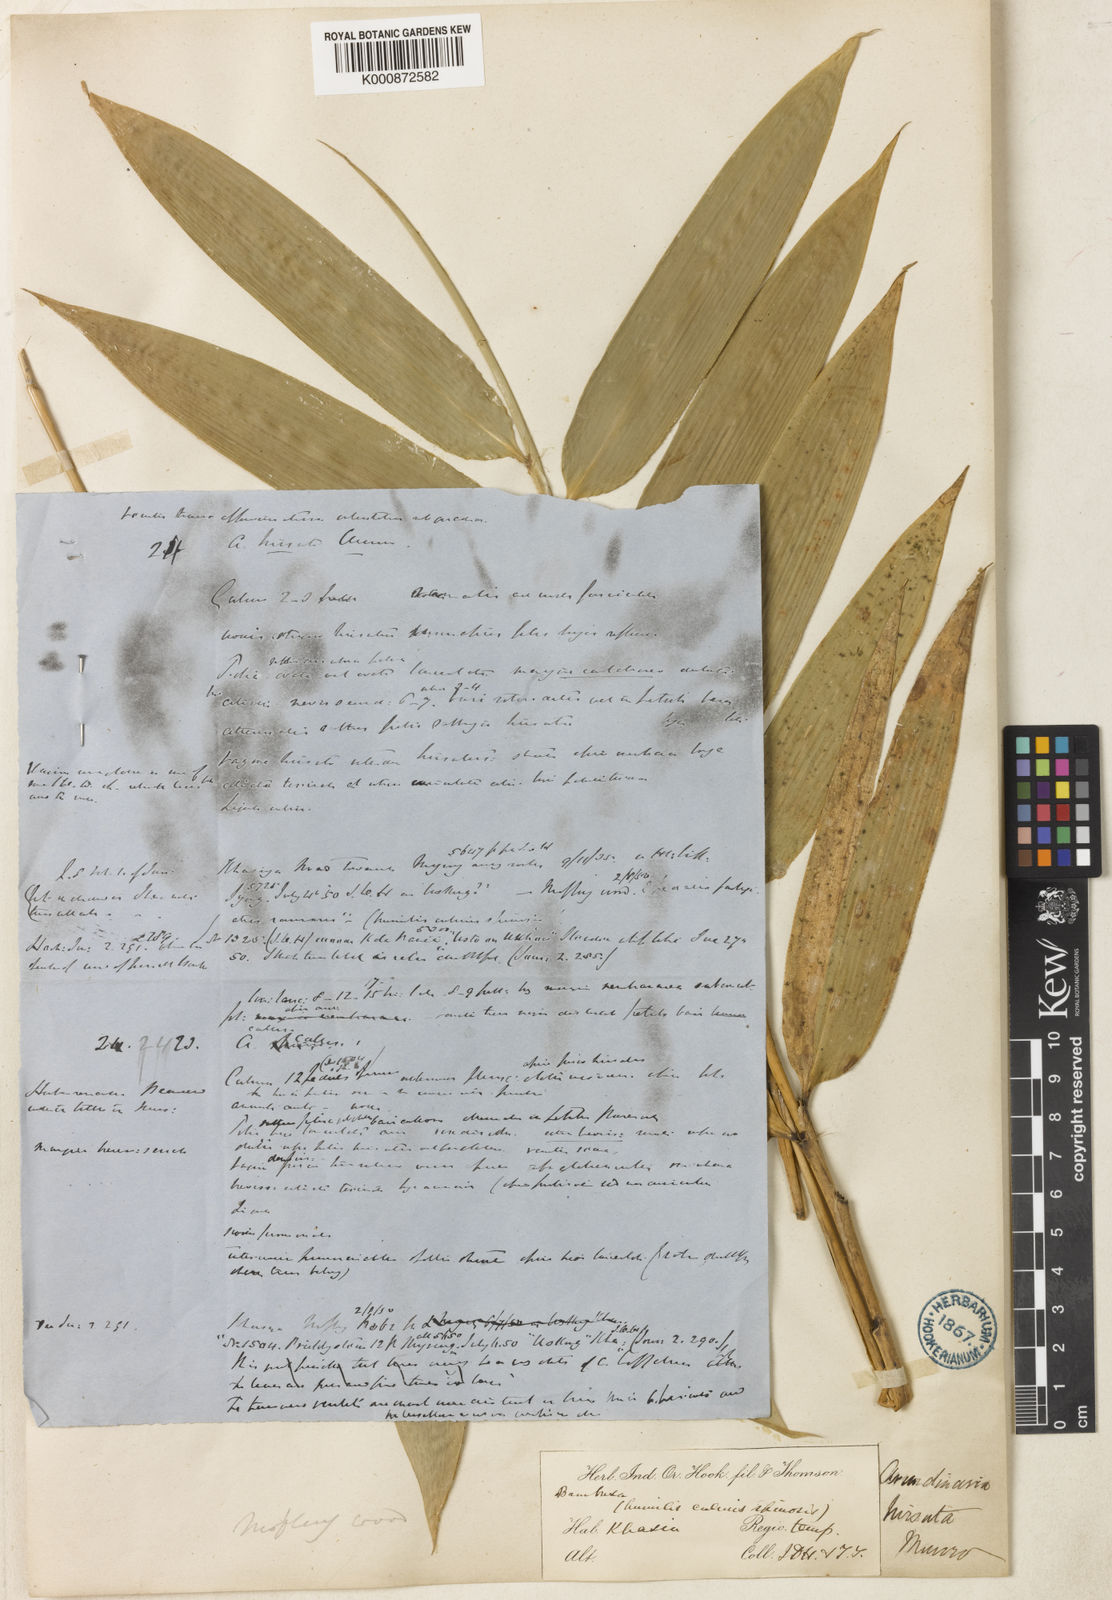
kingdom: Plantae
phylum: Tracheophyta
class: Liliopsida
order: Poales
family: Poaceae
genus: Yushania
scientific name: Yushania
